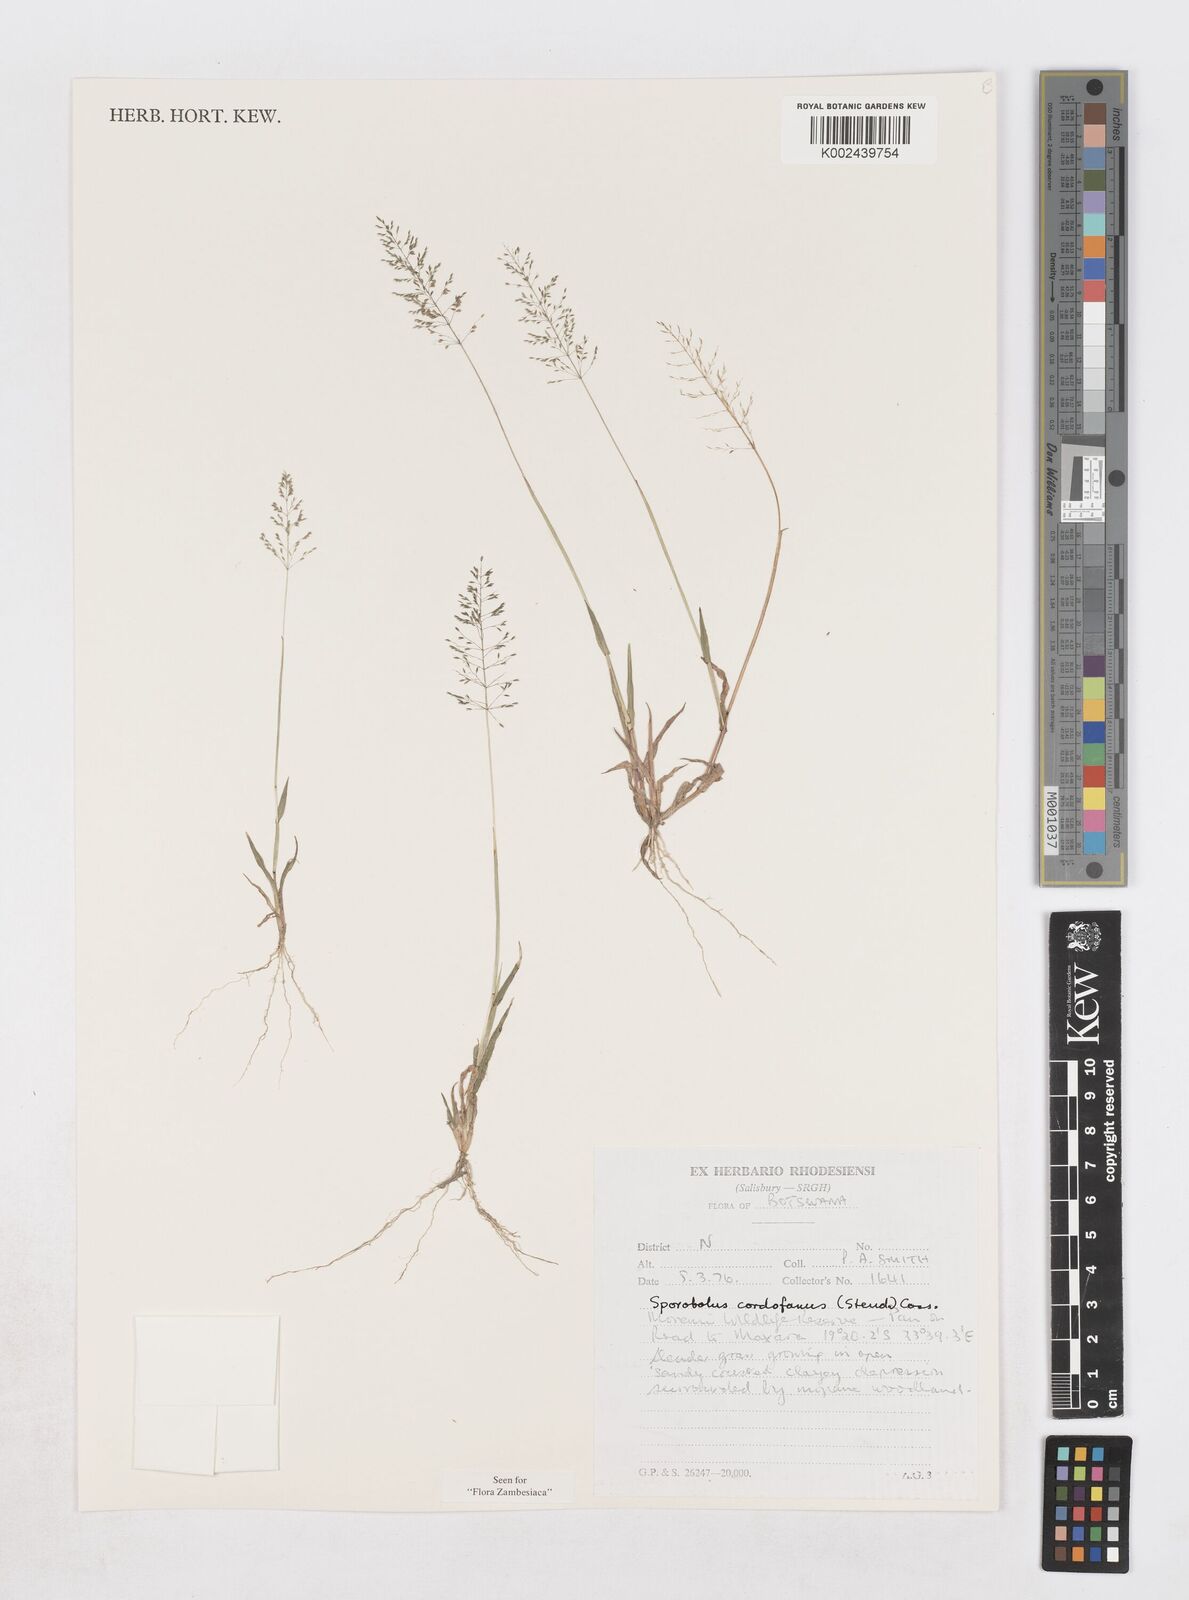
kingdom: Plantae
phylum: Tracheophyta
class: Liliopsida
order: Poales
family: Poaceae
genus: Sporobolus
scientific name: Sporobolus cordofanus
